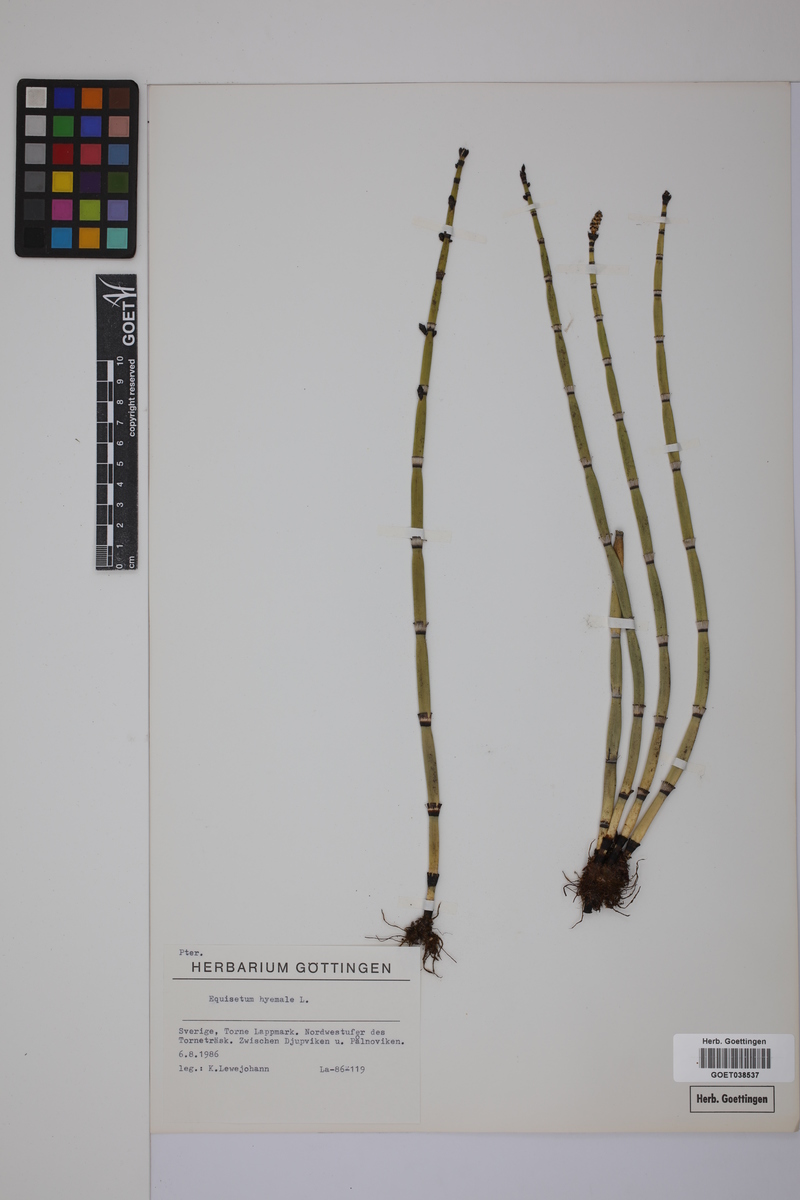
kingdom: Plantae
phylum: Tracheophyta
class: Polypodiopsida
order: Equisetales
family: Equisetaceae
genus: Equisetum
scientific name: Equisetum hyemale
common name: Rough horsetail
